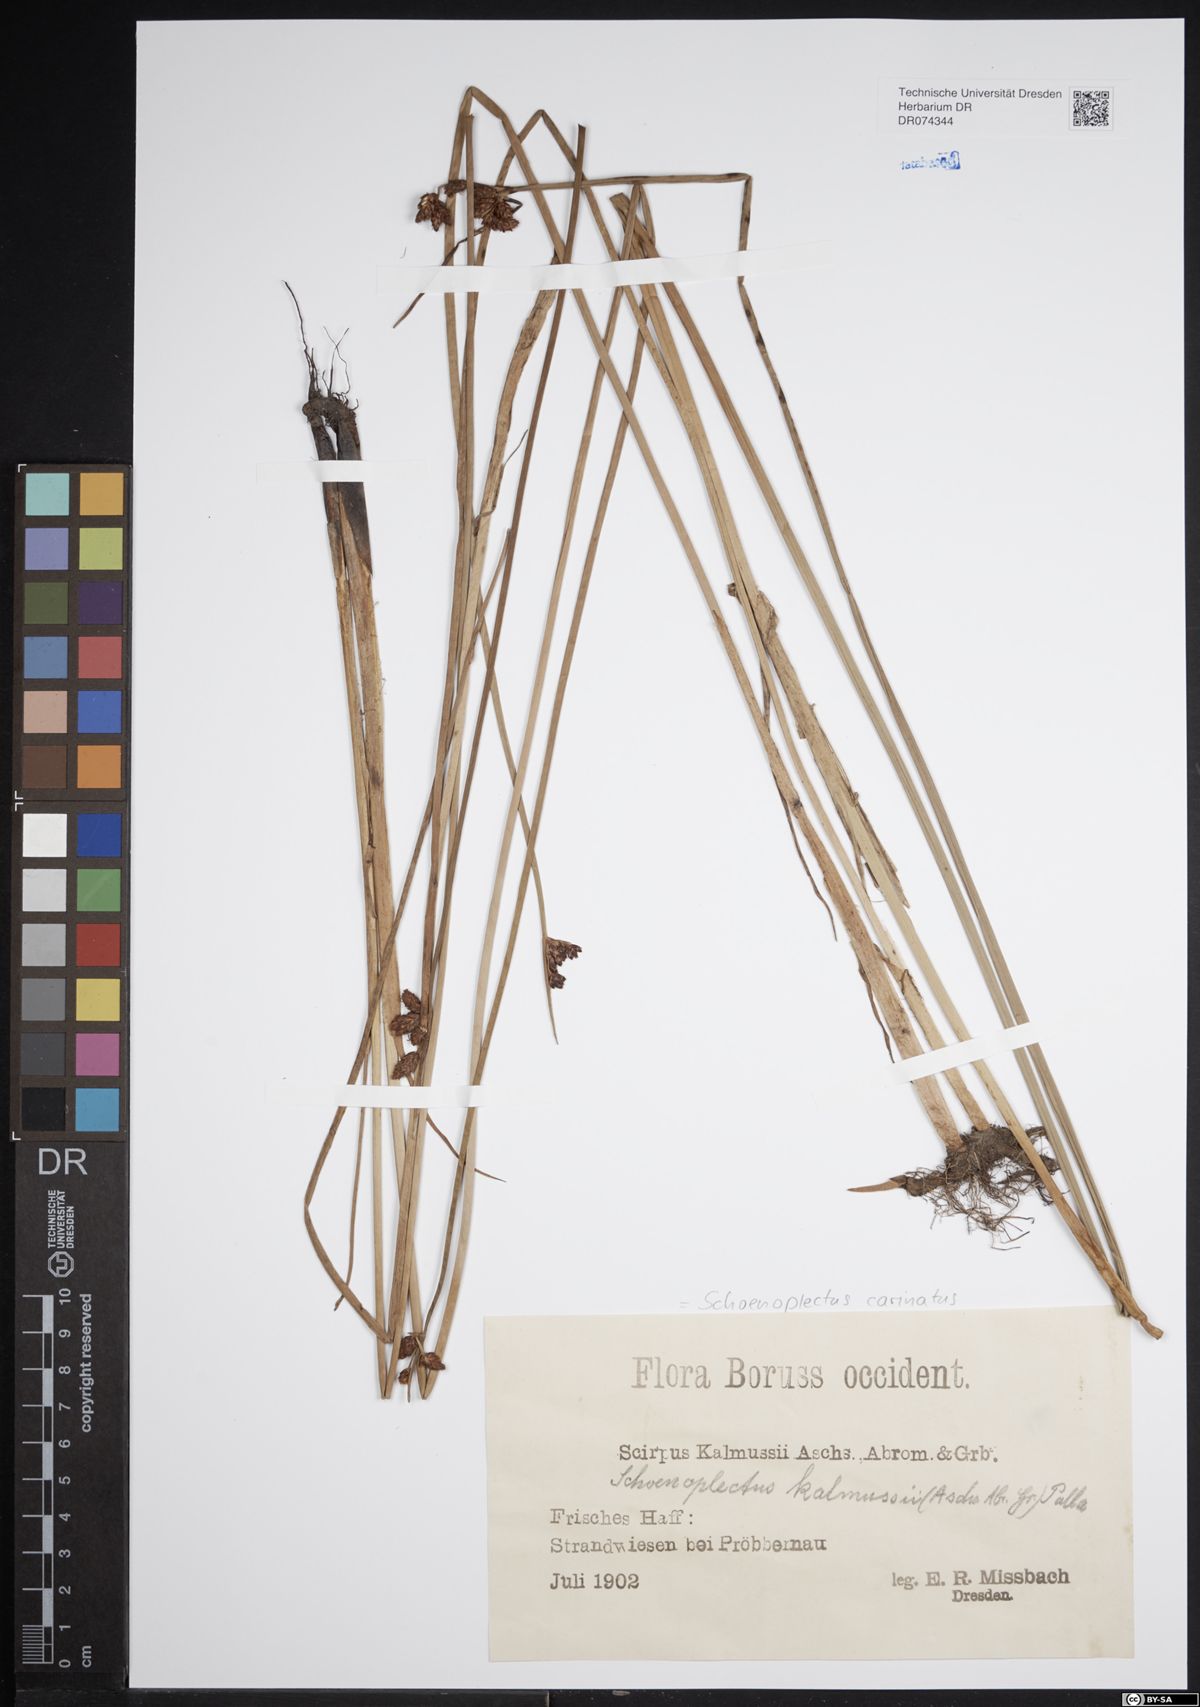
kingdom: Plantae
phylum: Tracheophyta
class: Liliopsida
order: Poales
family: Cyperaceae
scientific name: Cyperaceae
